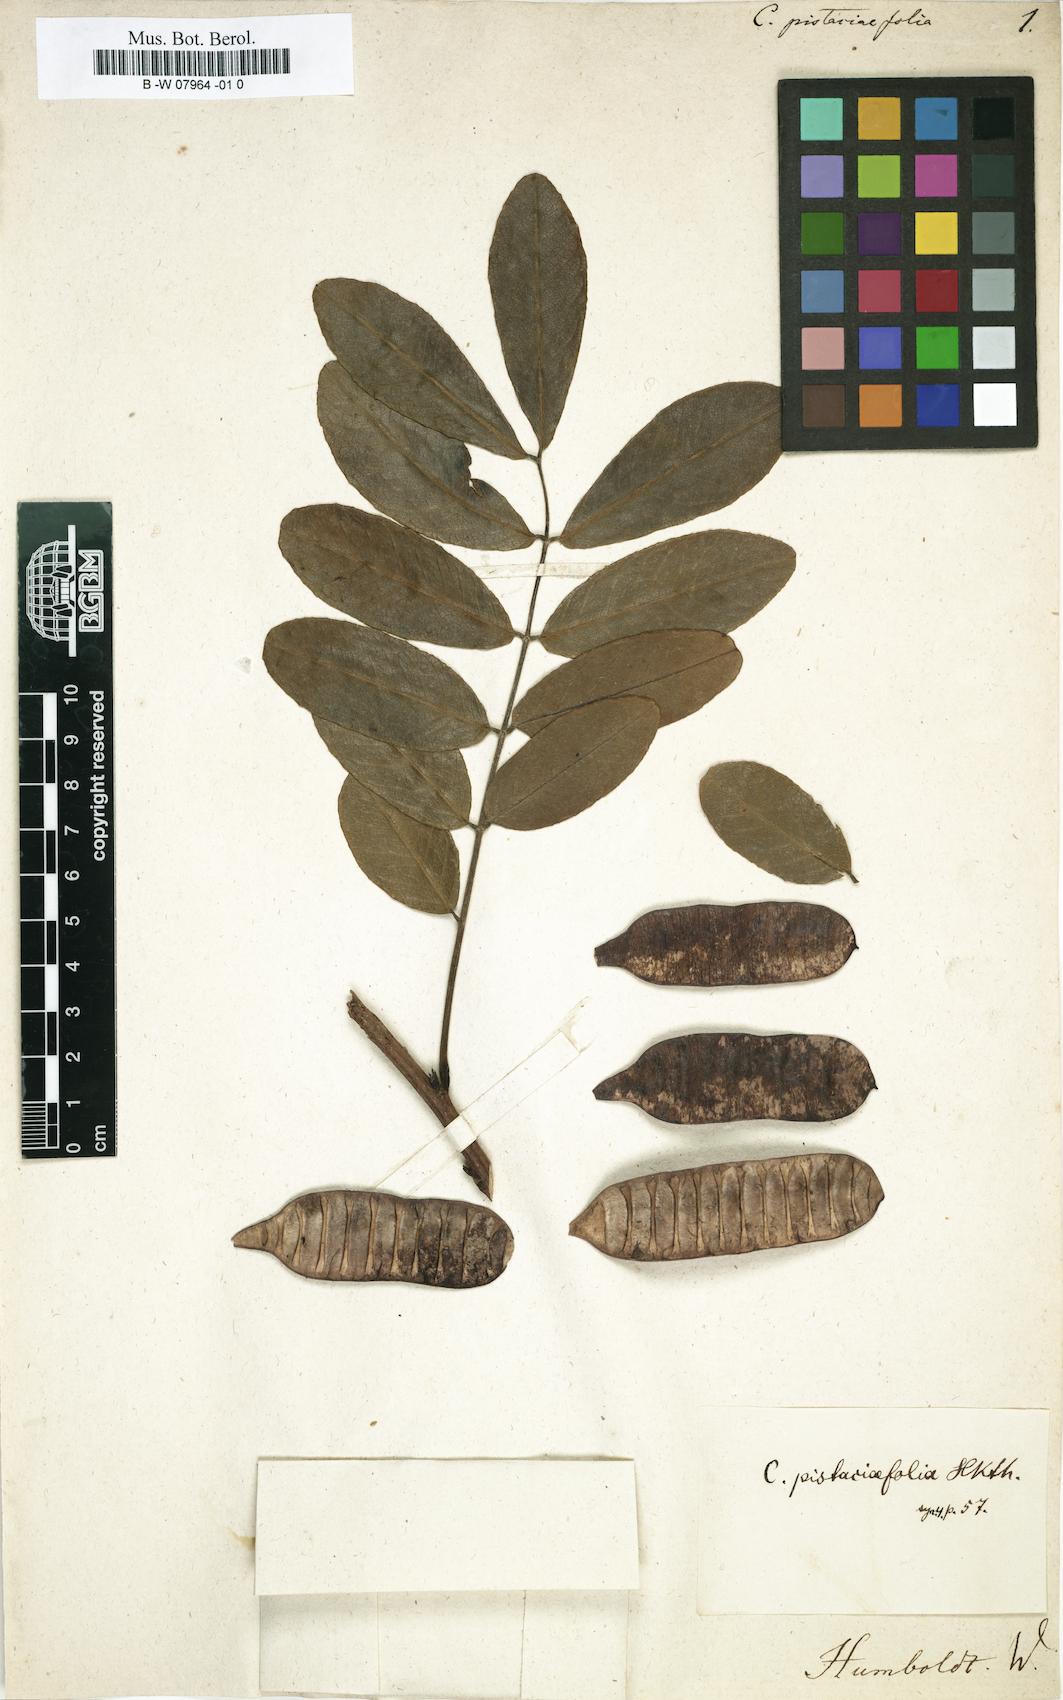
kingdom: Plantae
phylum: Tracheophyta
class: Magnoliopsida
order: Fabales
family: Fabaceae
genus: Senna
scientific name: Senna pistaciifolia
